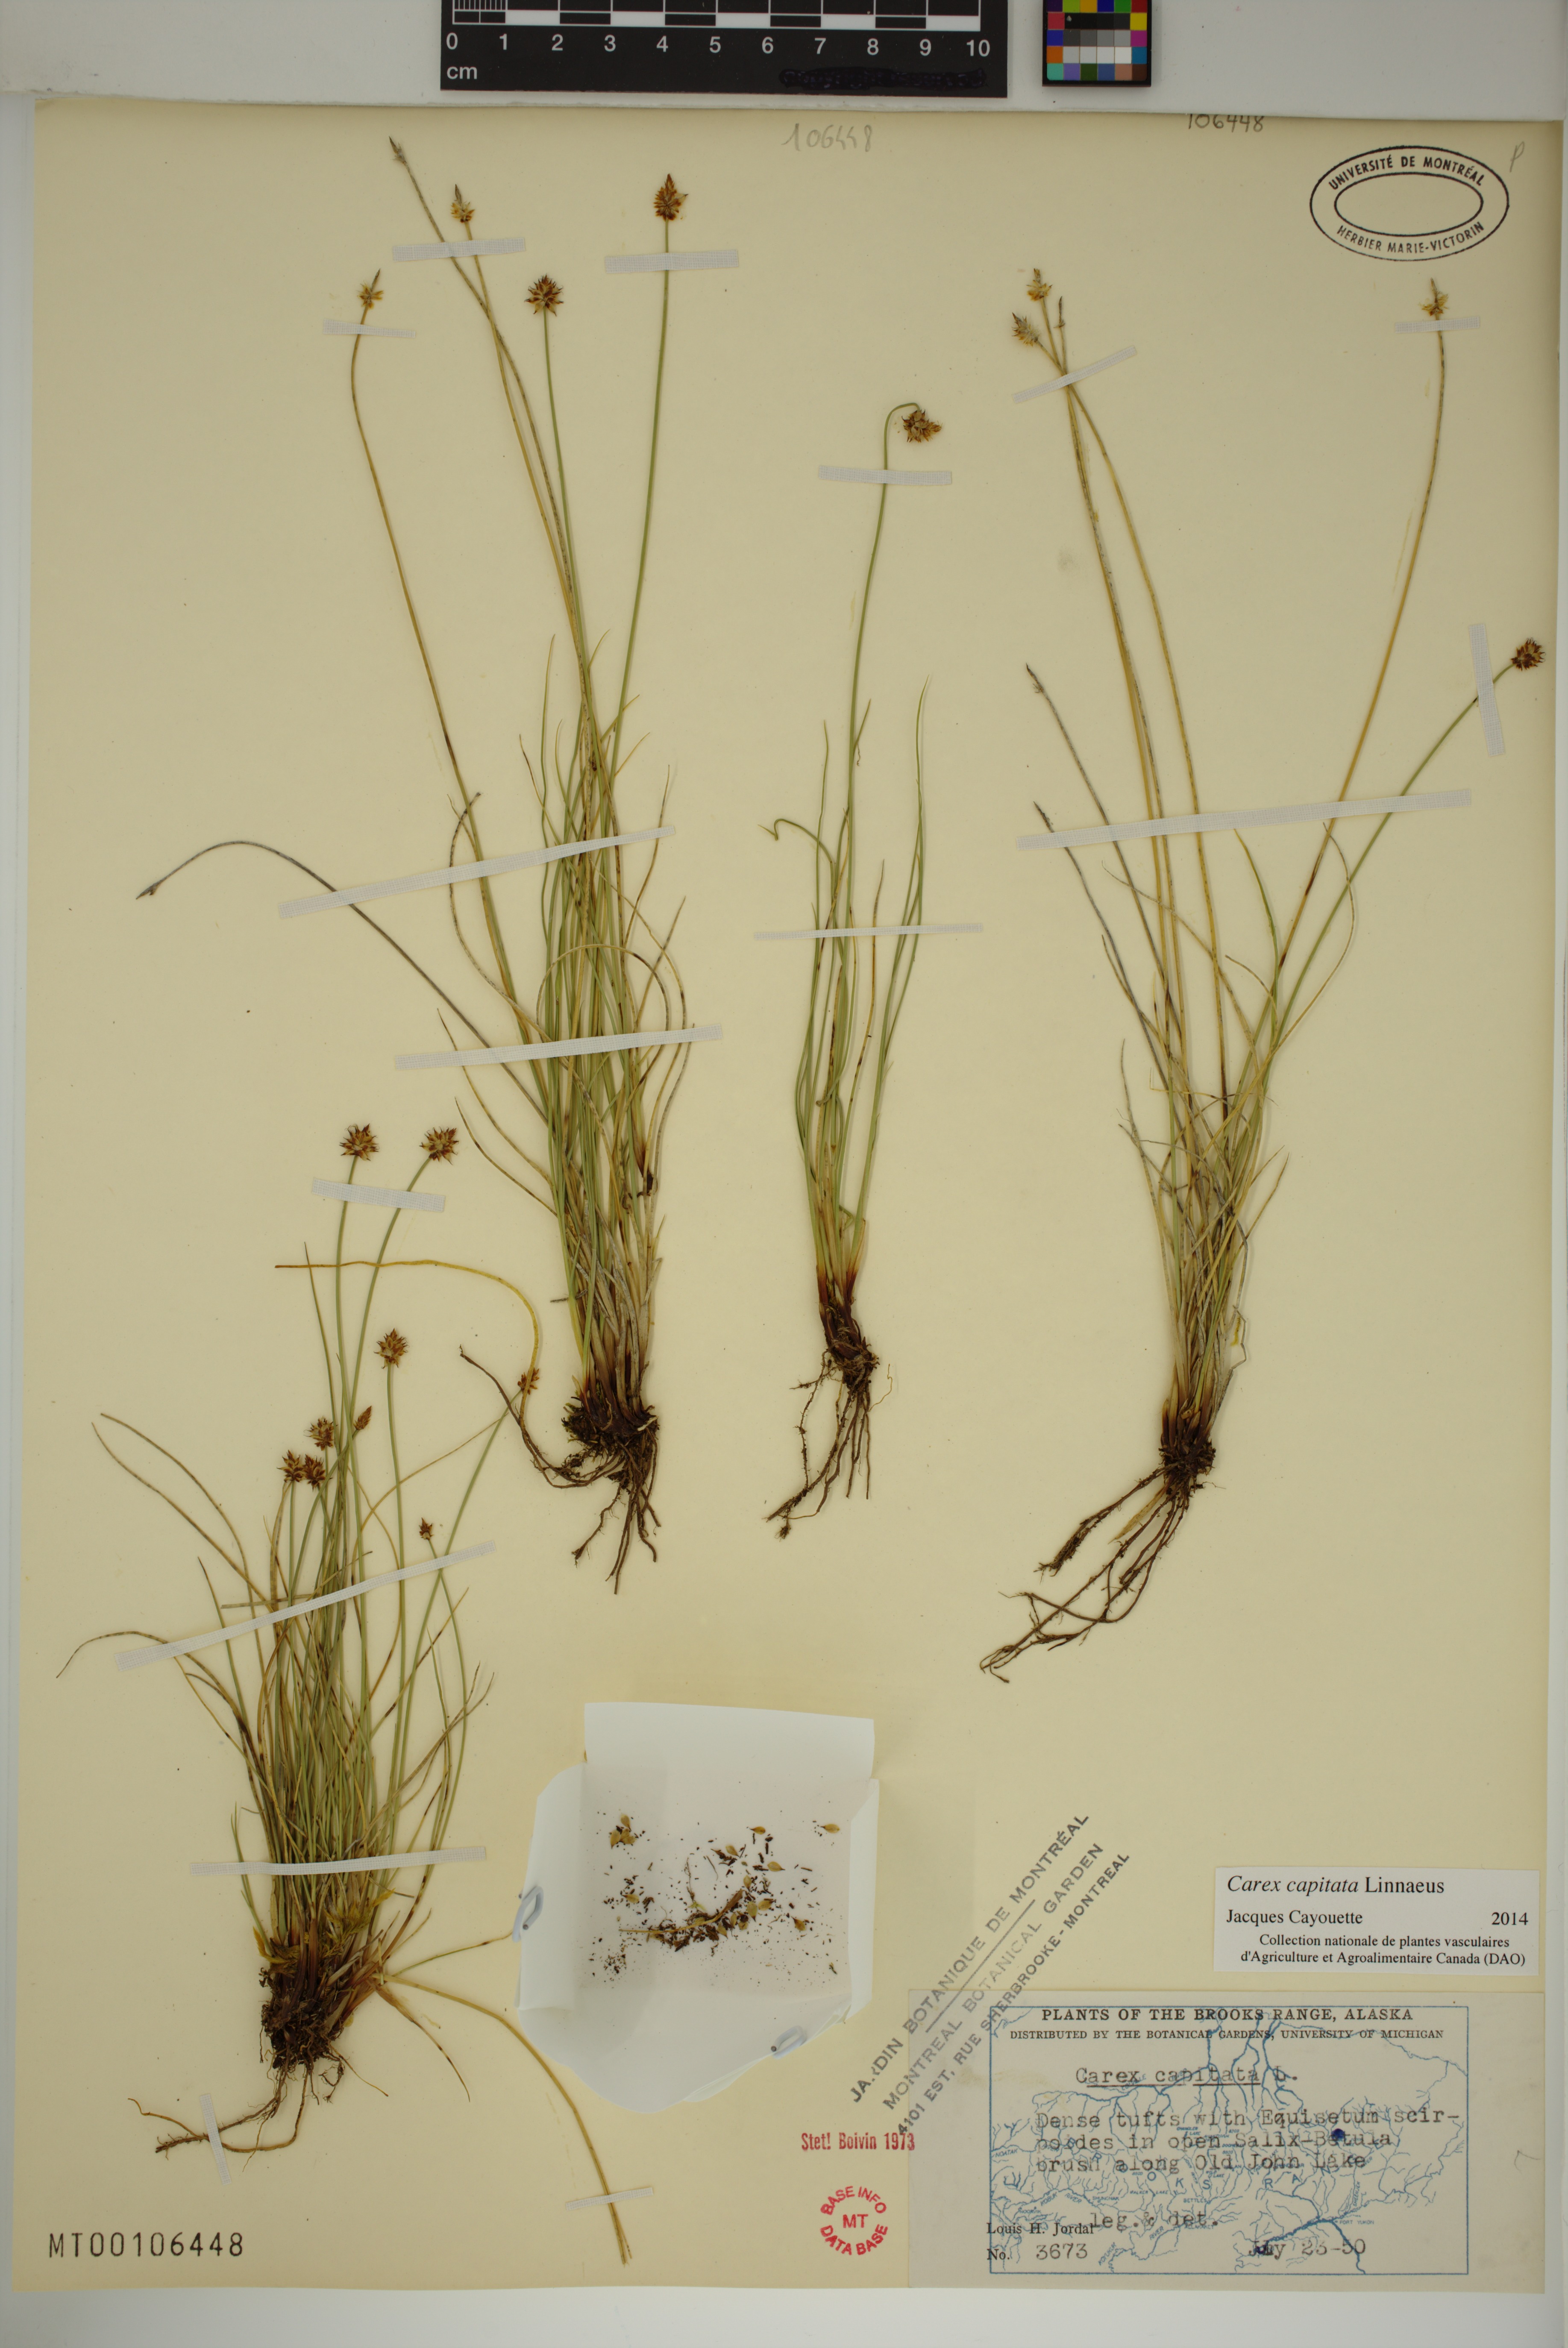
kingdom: Plantae
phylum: Tracheophyta
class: Liliopsida
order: Poales
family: Cyperaceae
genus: Carex
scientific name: Carex capitata
